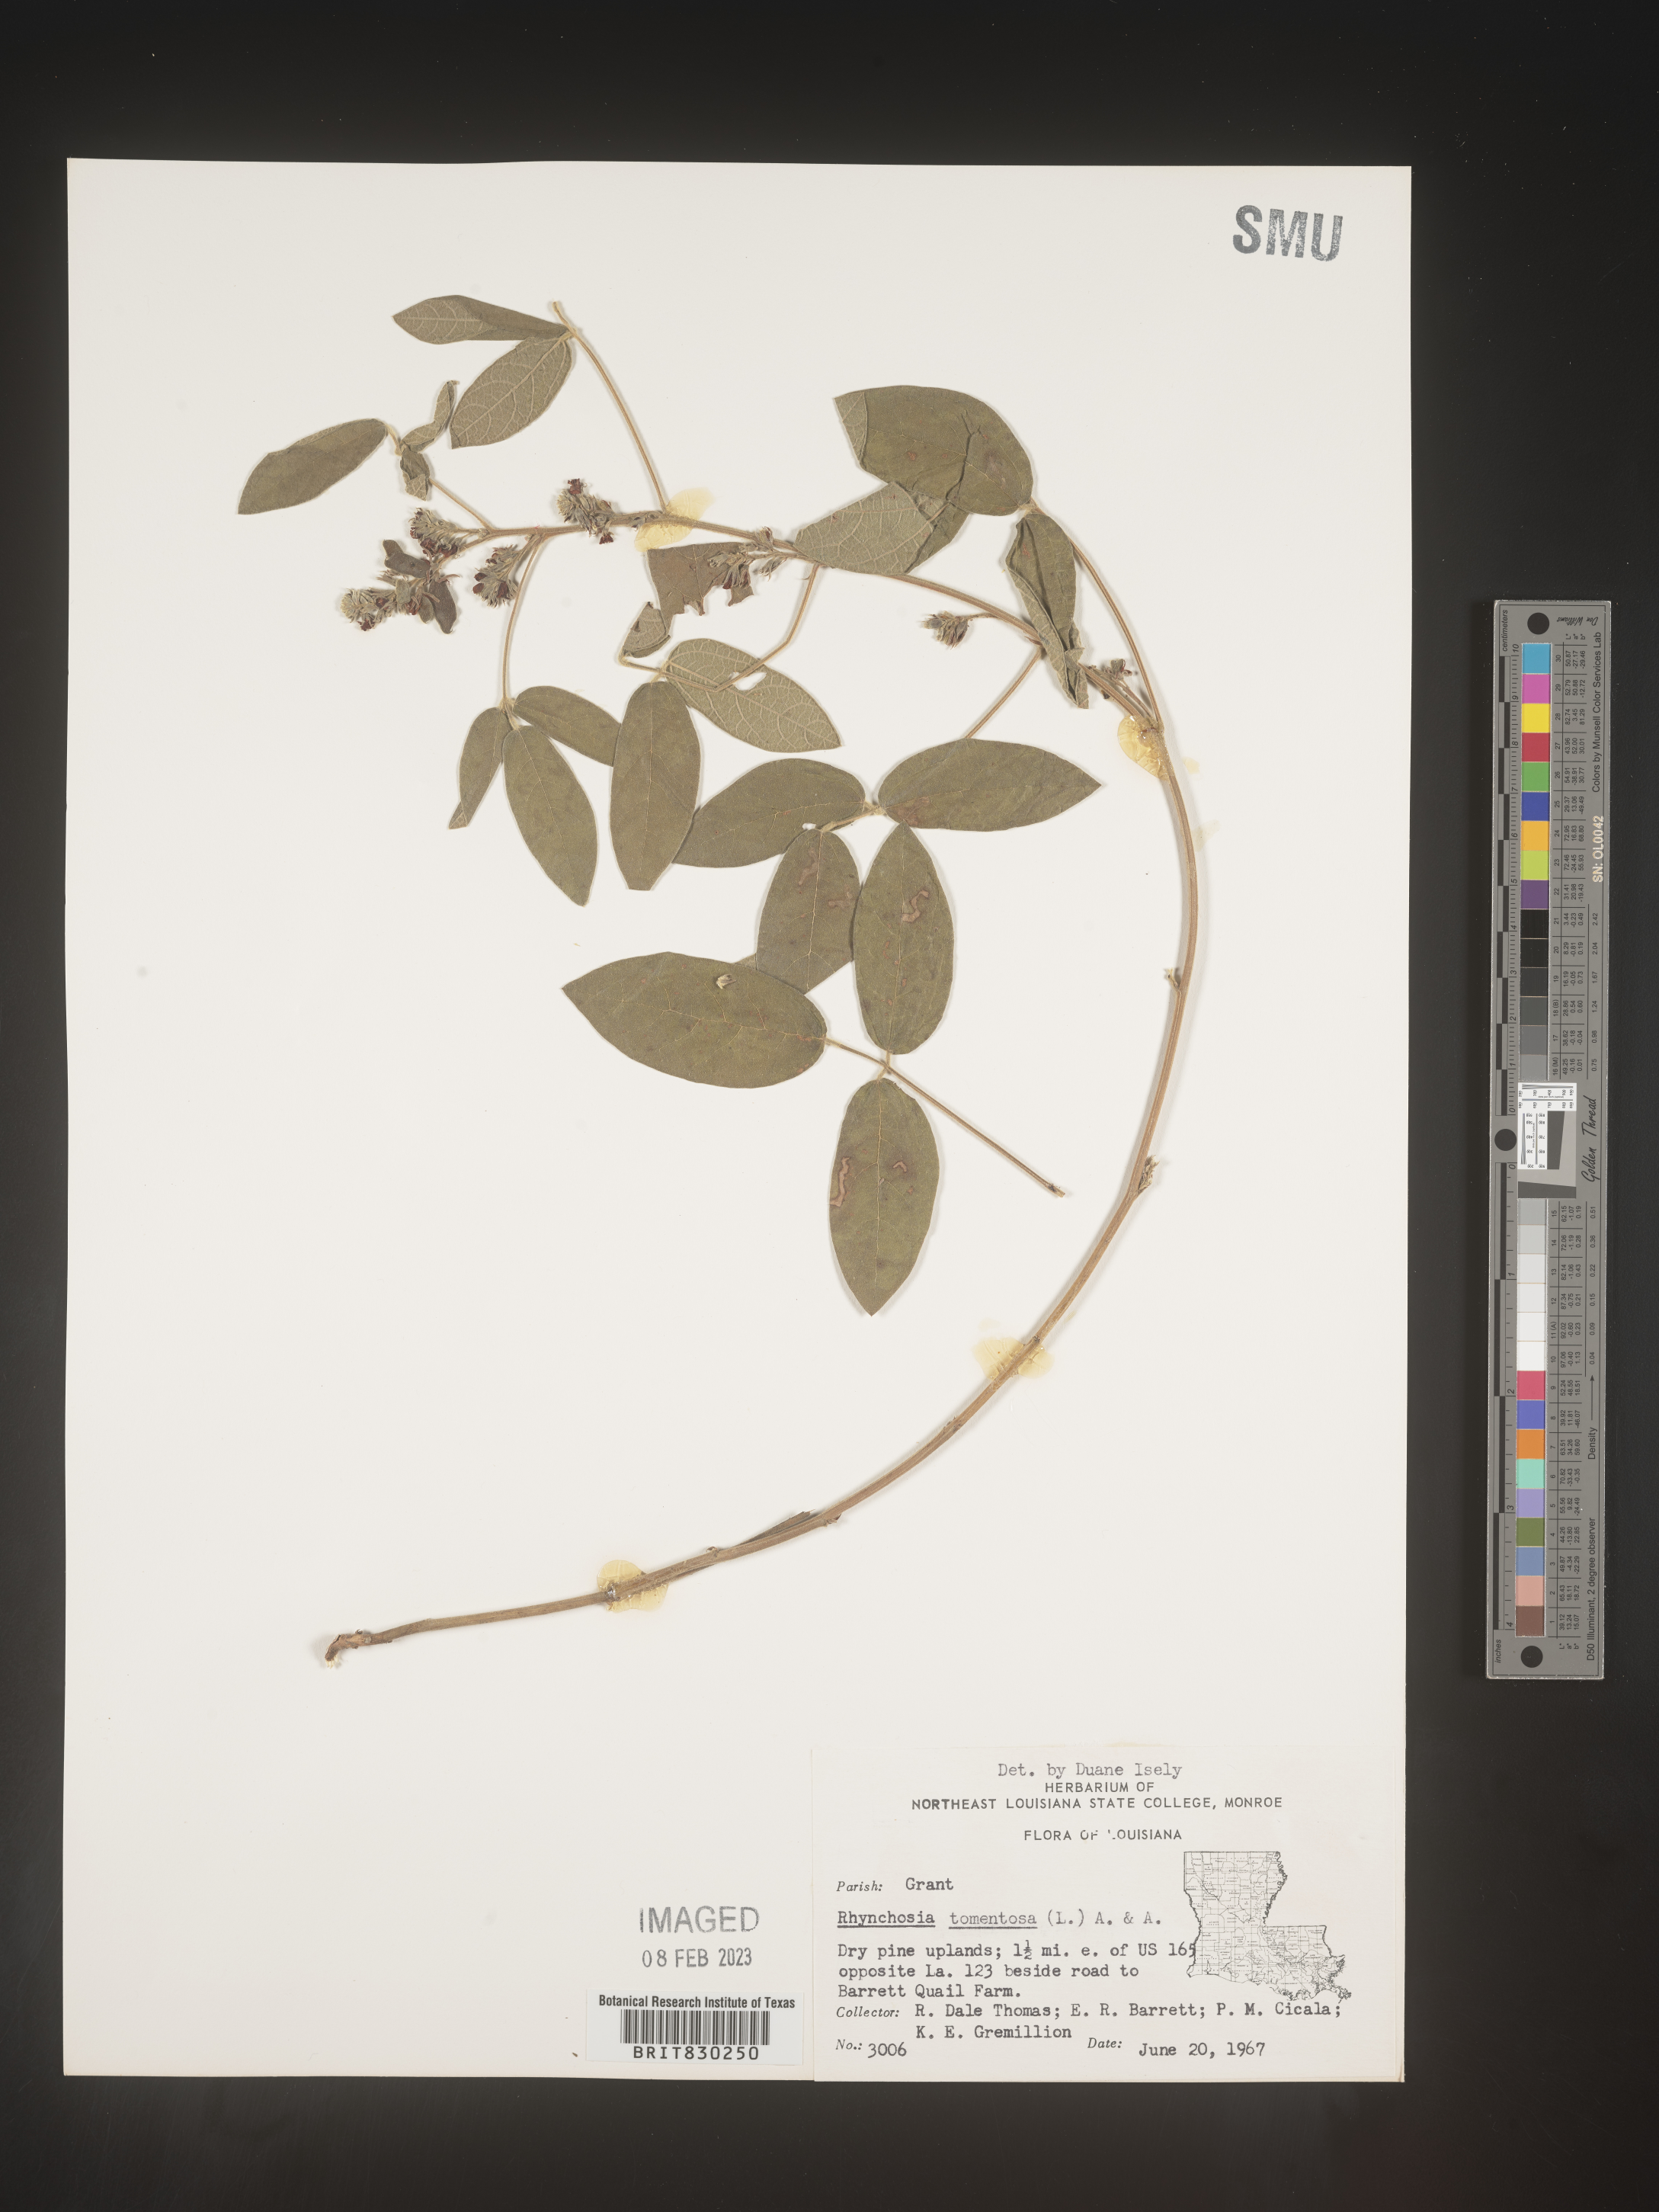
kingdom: Plantae
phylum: Tracheophyta
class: Magnoliopsida
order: Fabales
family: Fabaceae
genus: Rhynchosia
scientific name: Rhynchosia rothii
